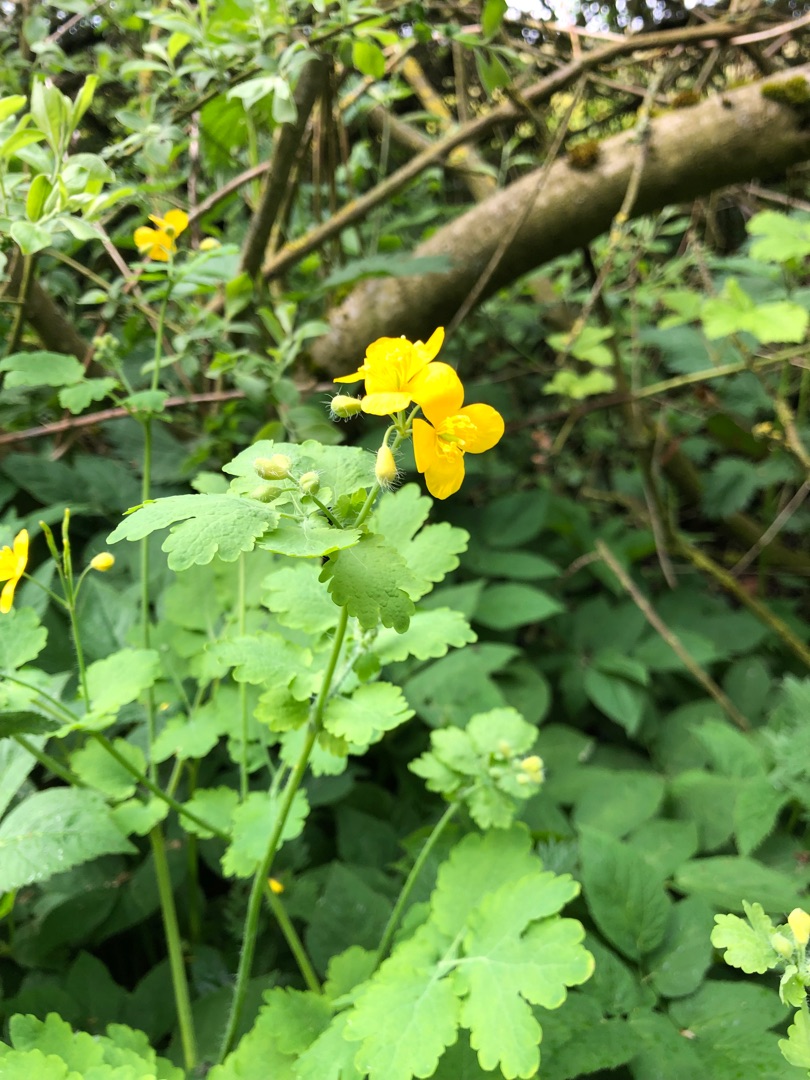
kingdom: Plantae
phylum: Tracheophyta
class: Magnoliopsida
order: Ranunculales
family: Papaveraceae
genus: Chelidonium
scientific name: Chelidonium majus
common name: Svaleurt
